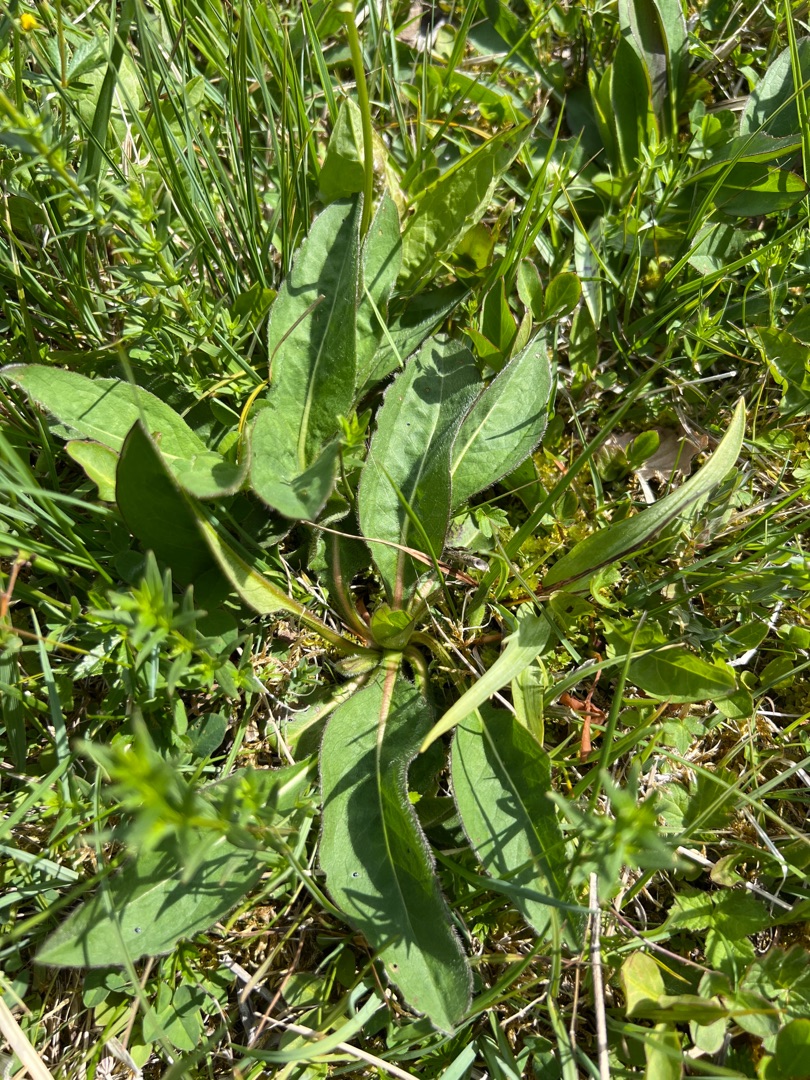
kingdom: Plantae
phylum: Tracheophyta
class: Magnoliopsida
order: Dipsacales
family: Caprifoliaceae
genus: Succisa
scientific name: Succisa pratensis
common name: Djævelsbid
